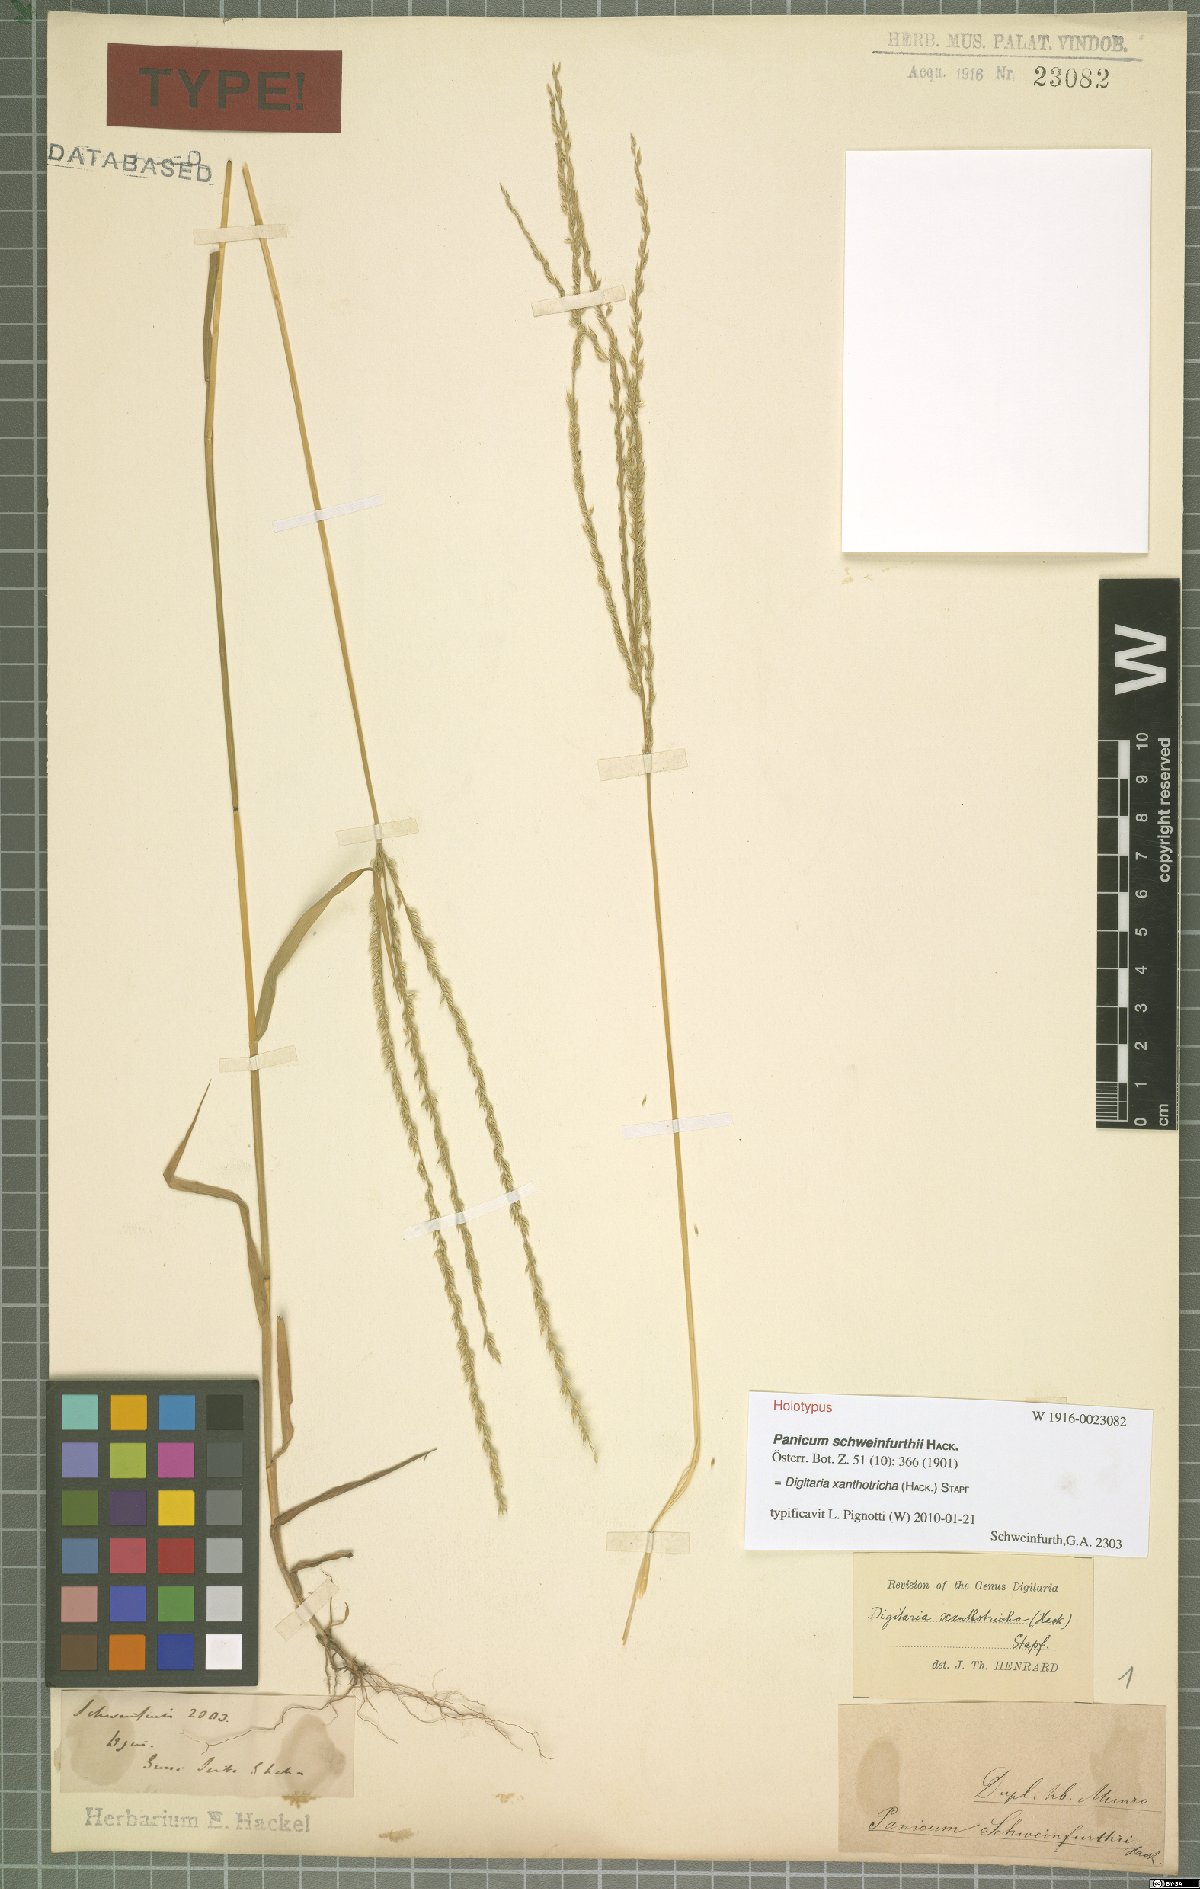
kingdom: Plantae
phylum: Tracheophyta
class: Liliopsida
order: Poales
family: Poaceae
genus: Digitaria
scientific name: Digitaria xanthotricha
